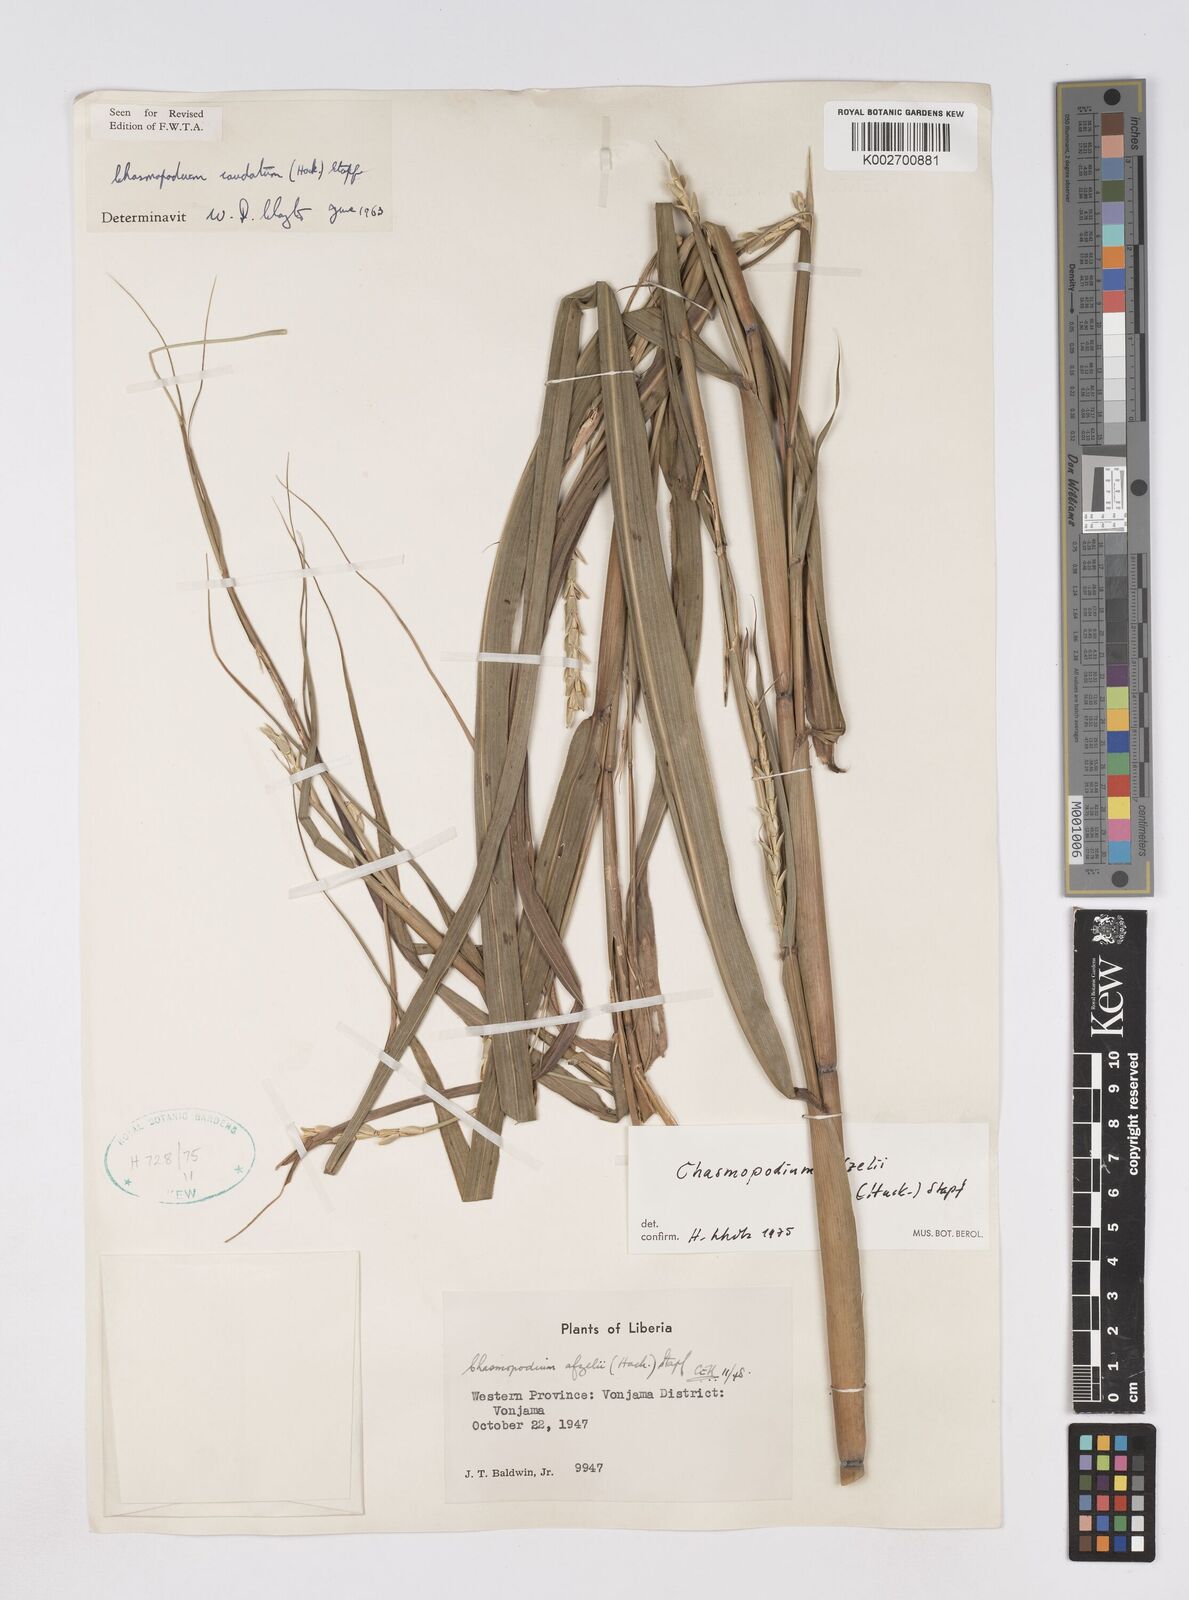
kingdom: Plantae
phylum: Tracheophyta
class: Liliopsida
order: Poales
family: Poaceae
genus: Chasmopodium
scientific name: Chasmopodium caudatum
